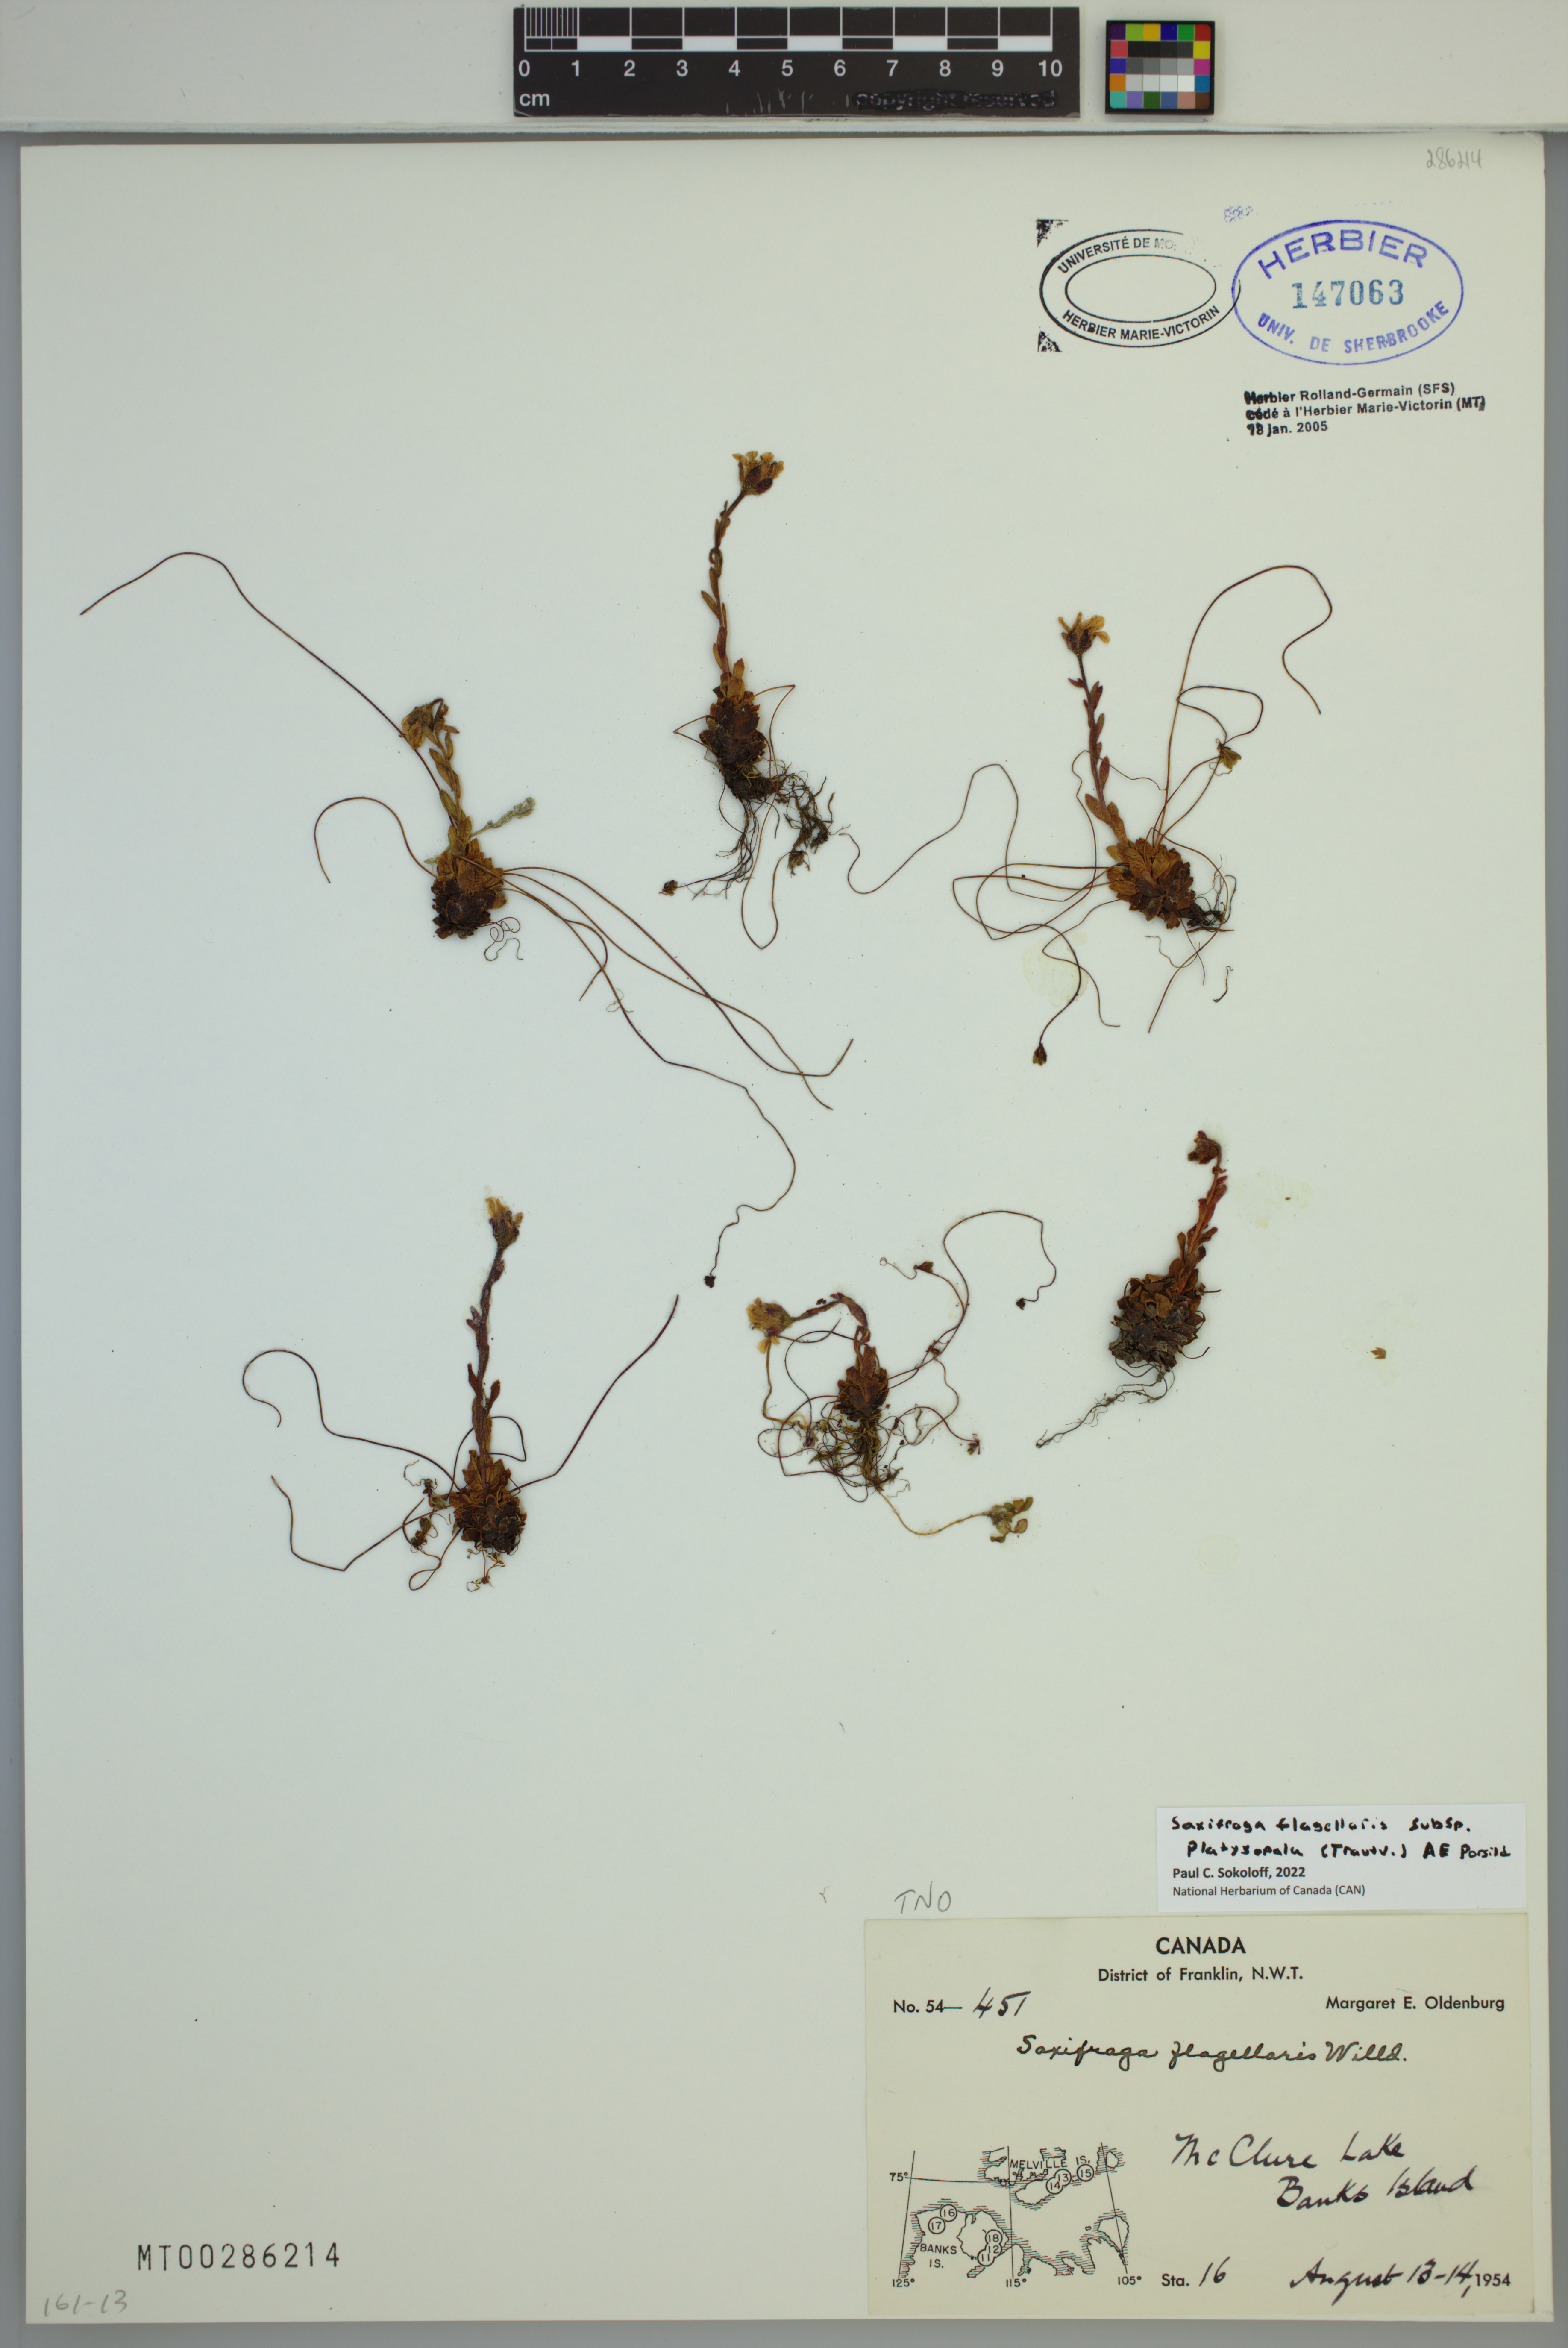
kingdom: Plantae
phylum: Tracheophyta
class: Magnoliopsida
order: Saxifragales
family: Saxifragaceae
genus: Saxifraga
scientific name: Saxifraga platysepala
